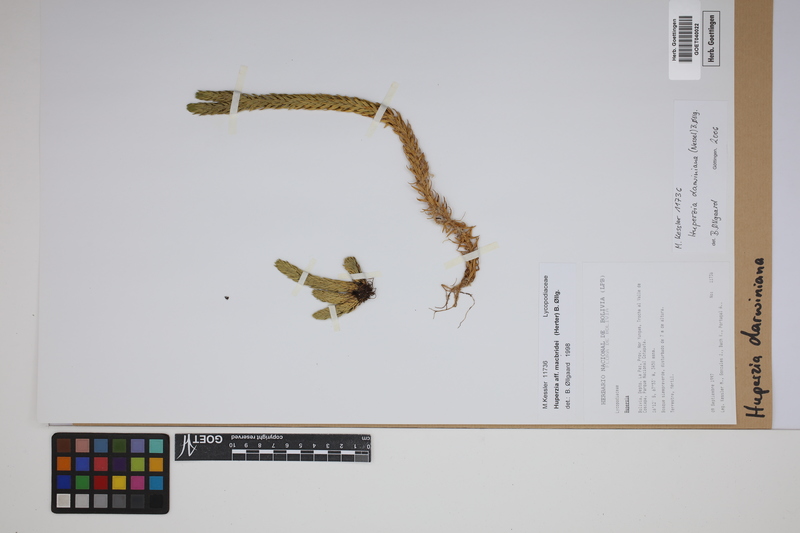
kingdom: Plantae
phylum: Tracheophyta
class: Lycopodiopsida
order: Lycopodiales
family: Lycopodiaceae
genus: Phlegmariurus
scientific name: Phlegmariurus darwinianus
